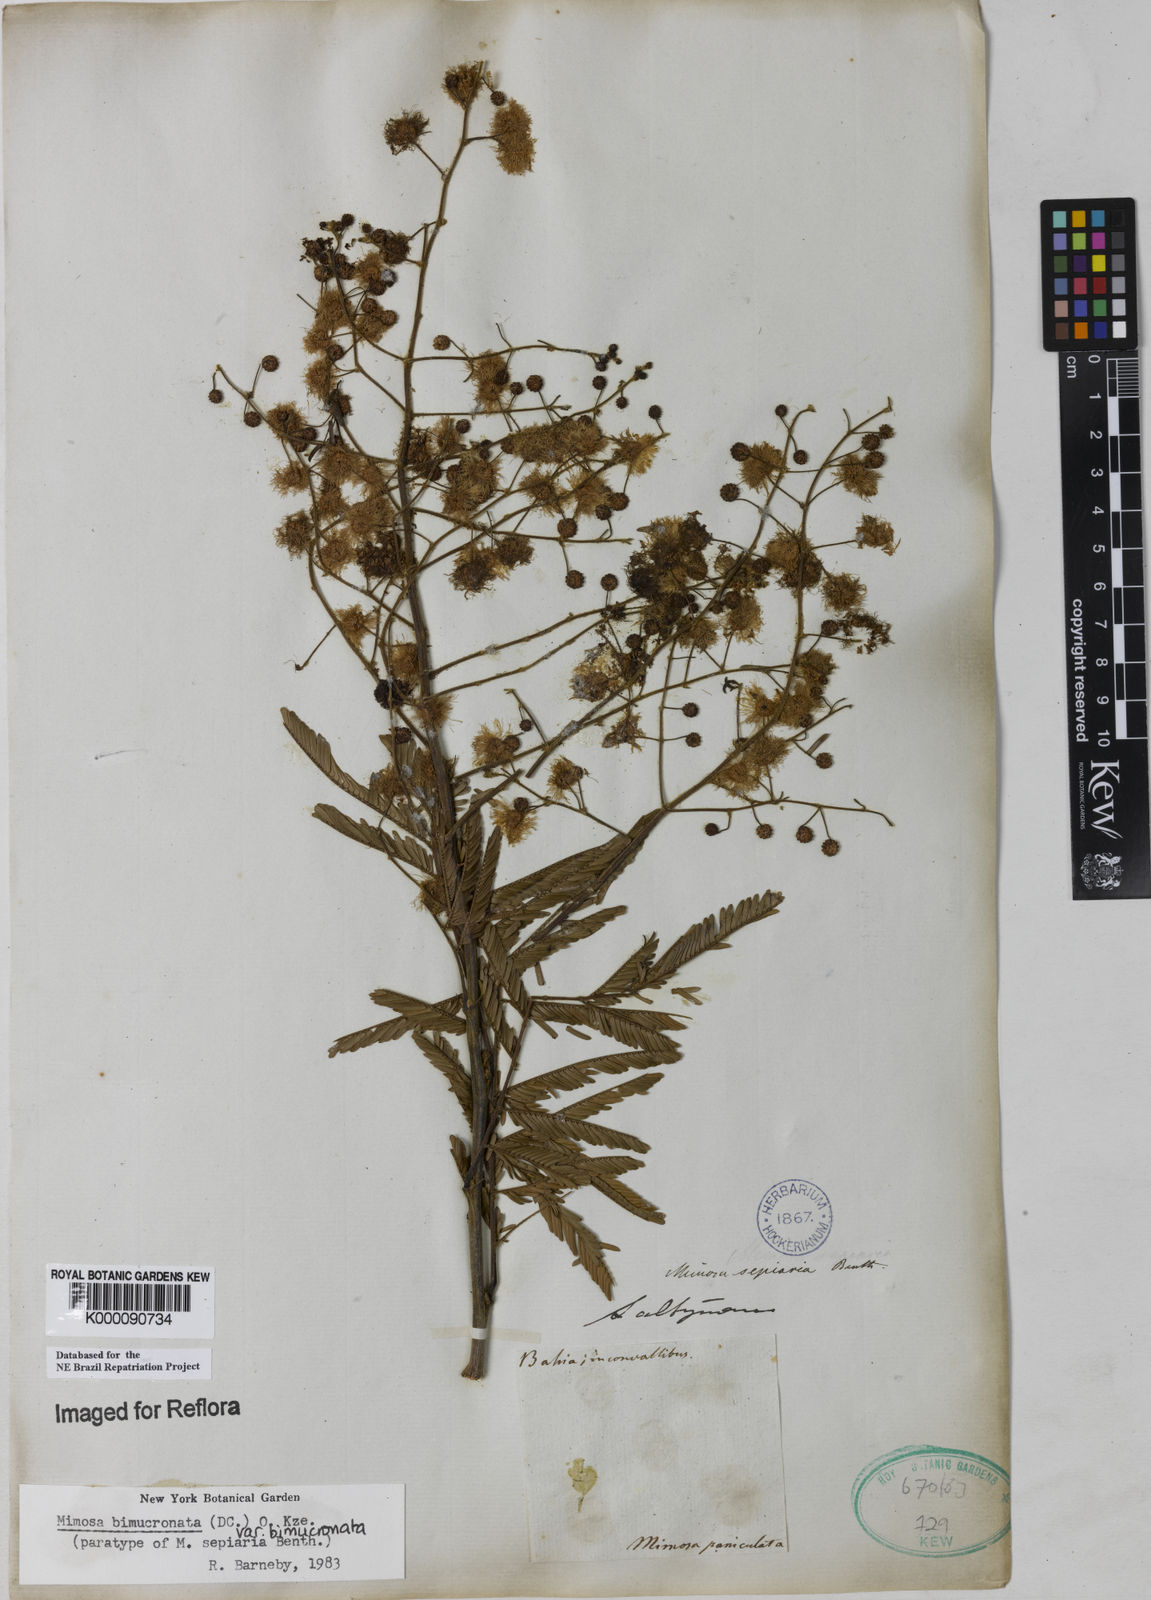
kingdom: Plantae
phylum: Tracheophyta
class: Magnoliopsida
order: Fabales
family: Fabaceae
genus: Mimosa
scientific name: Mimosa bimucronata
